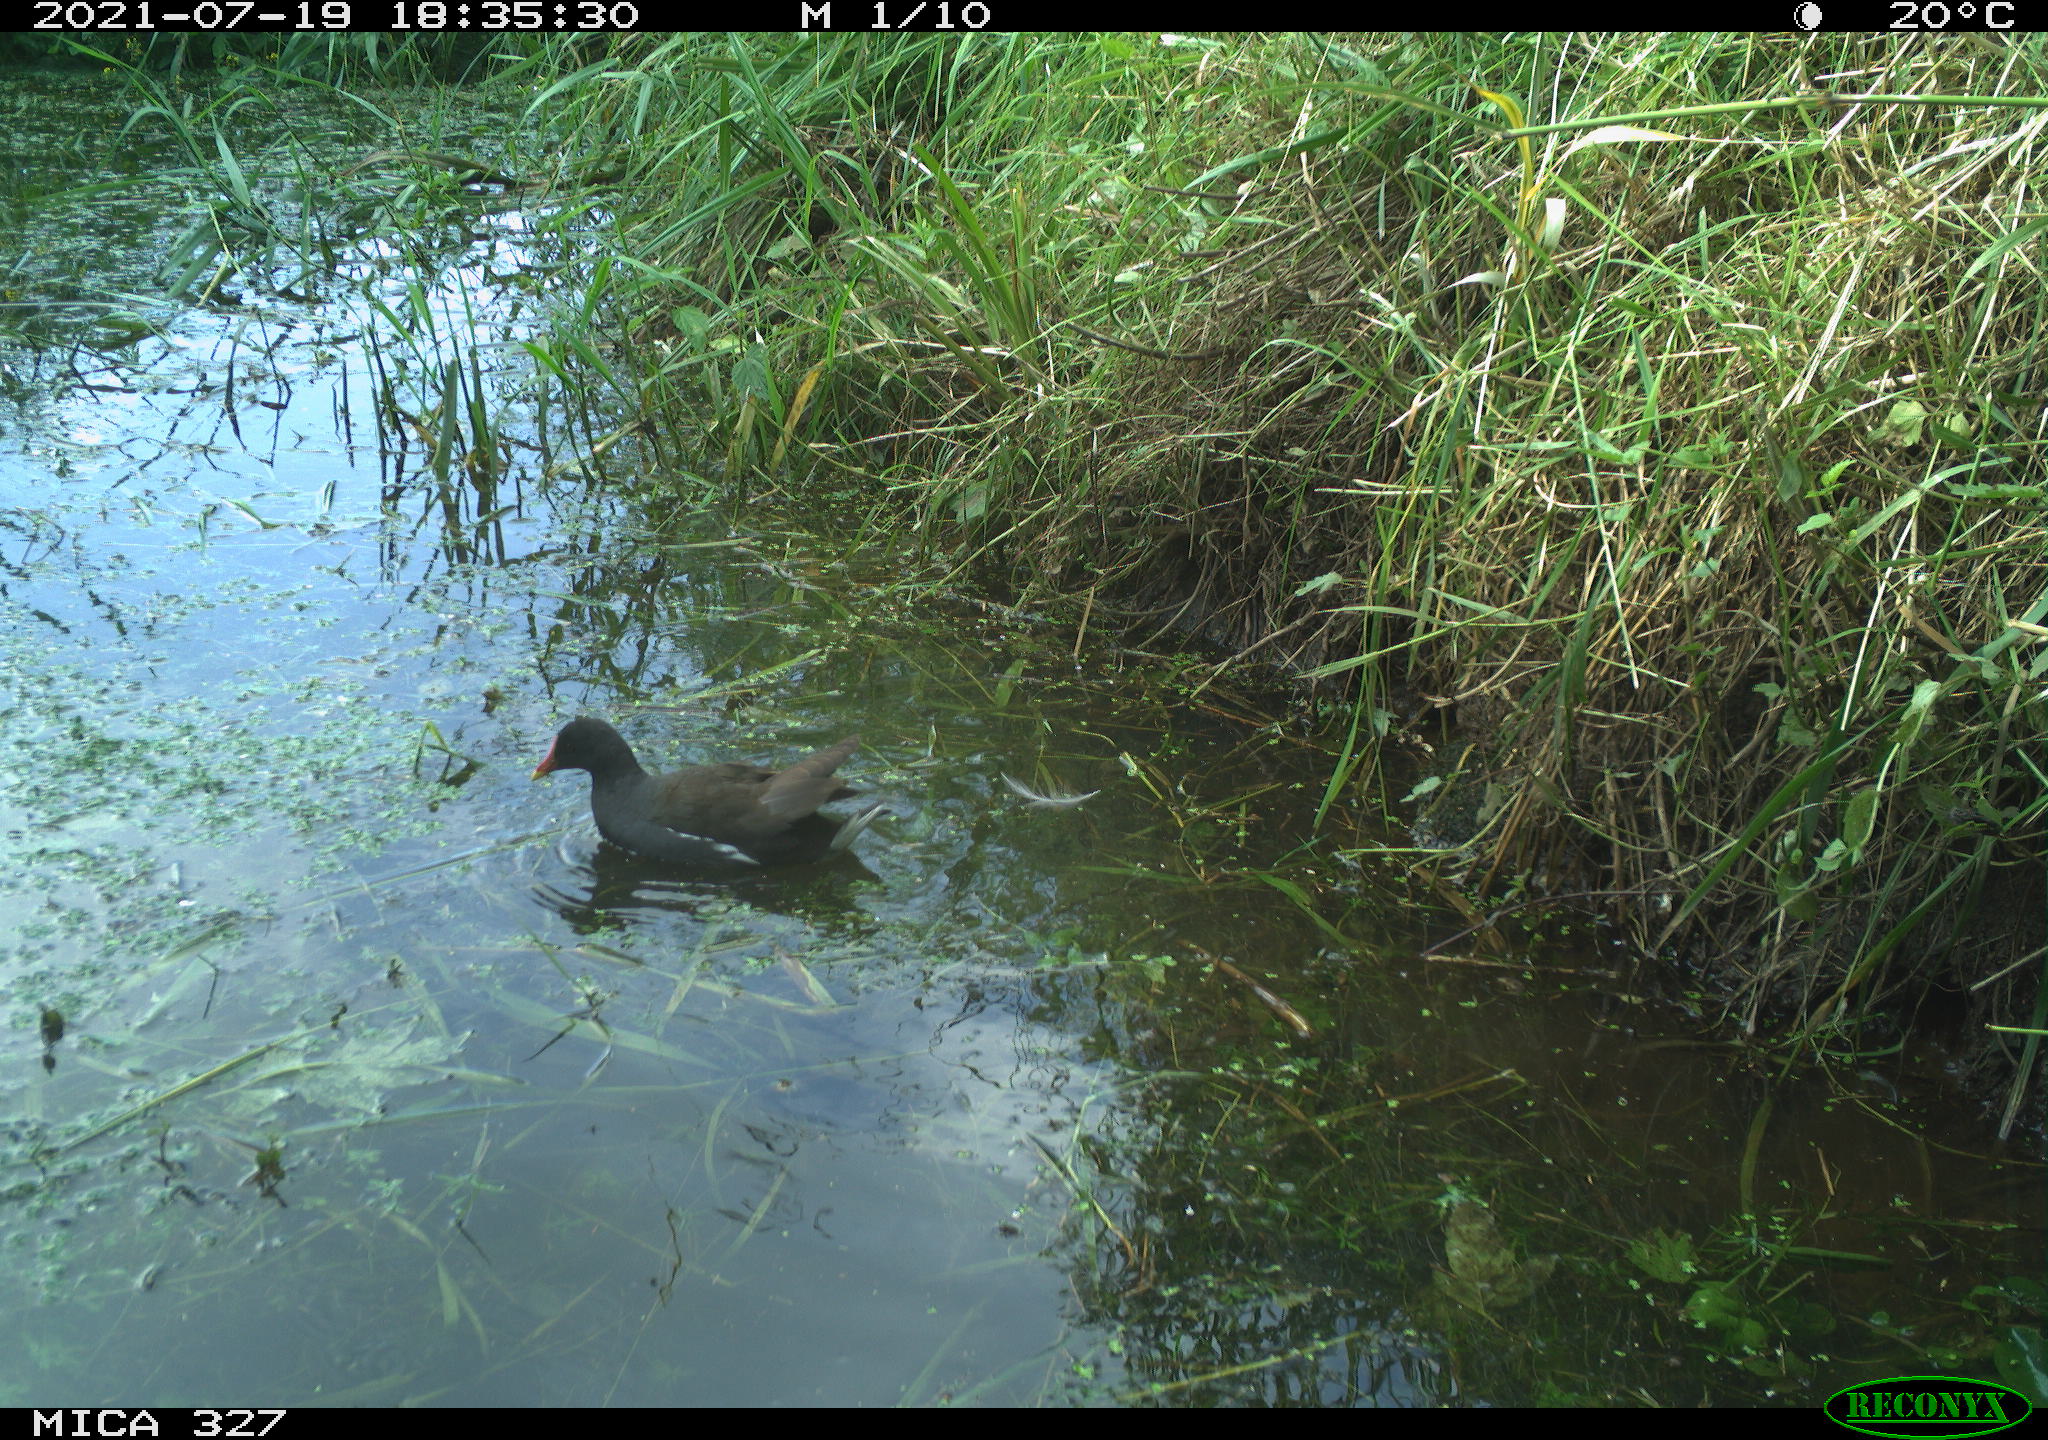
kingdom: Animalia
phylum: Chordata
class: Aves
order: Gruiformes
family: Rallidae
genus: Gallinula
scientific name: Gallinula chloropus
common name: Common moorhen
